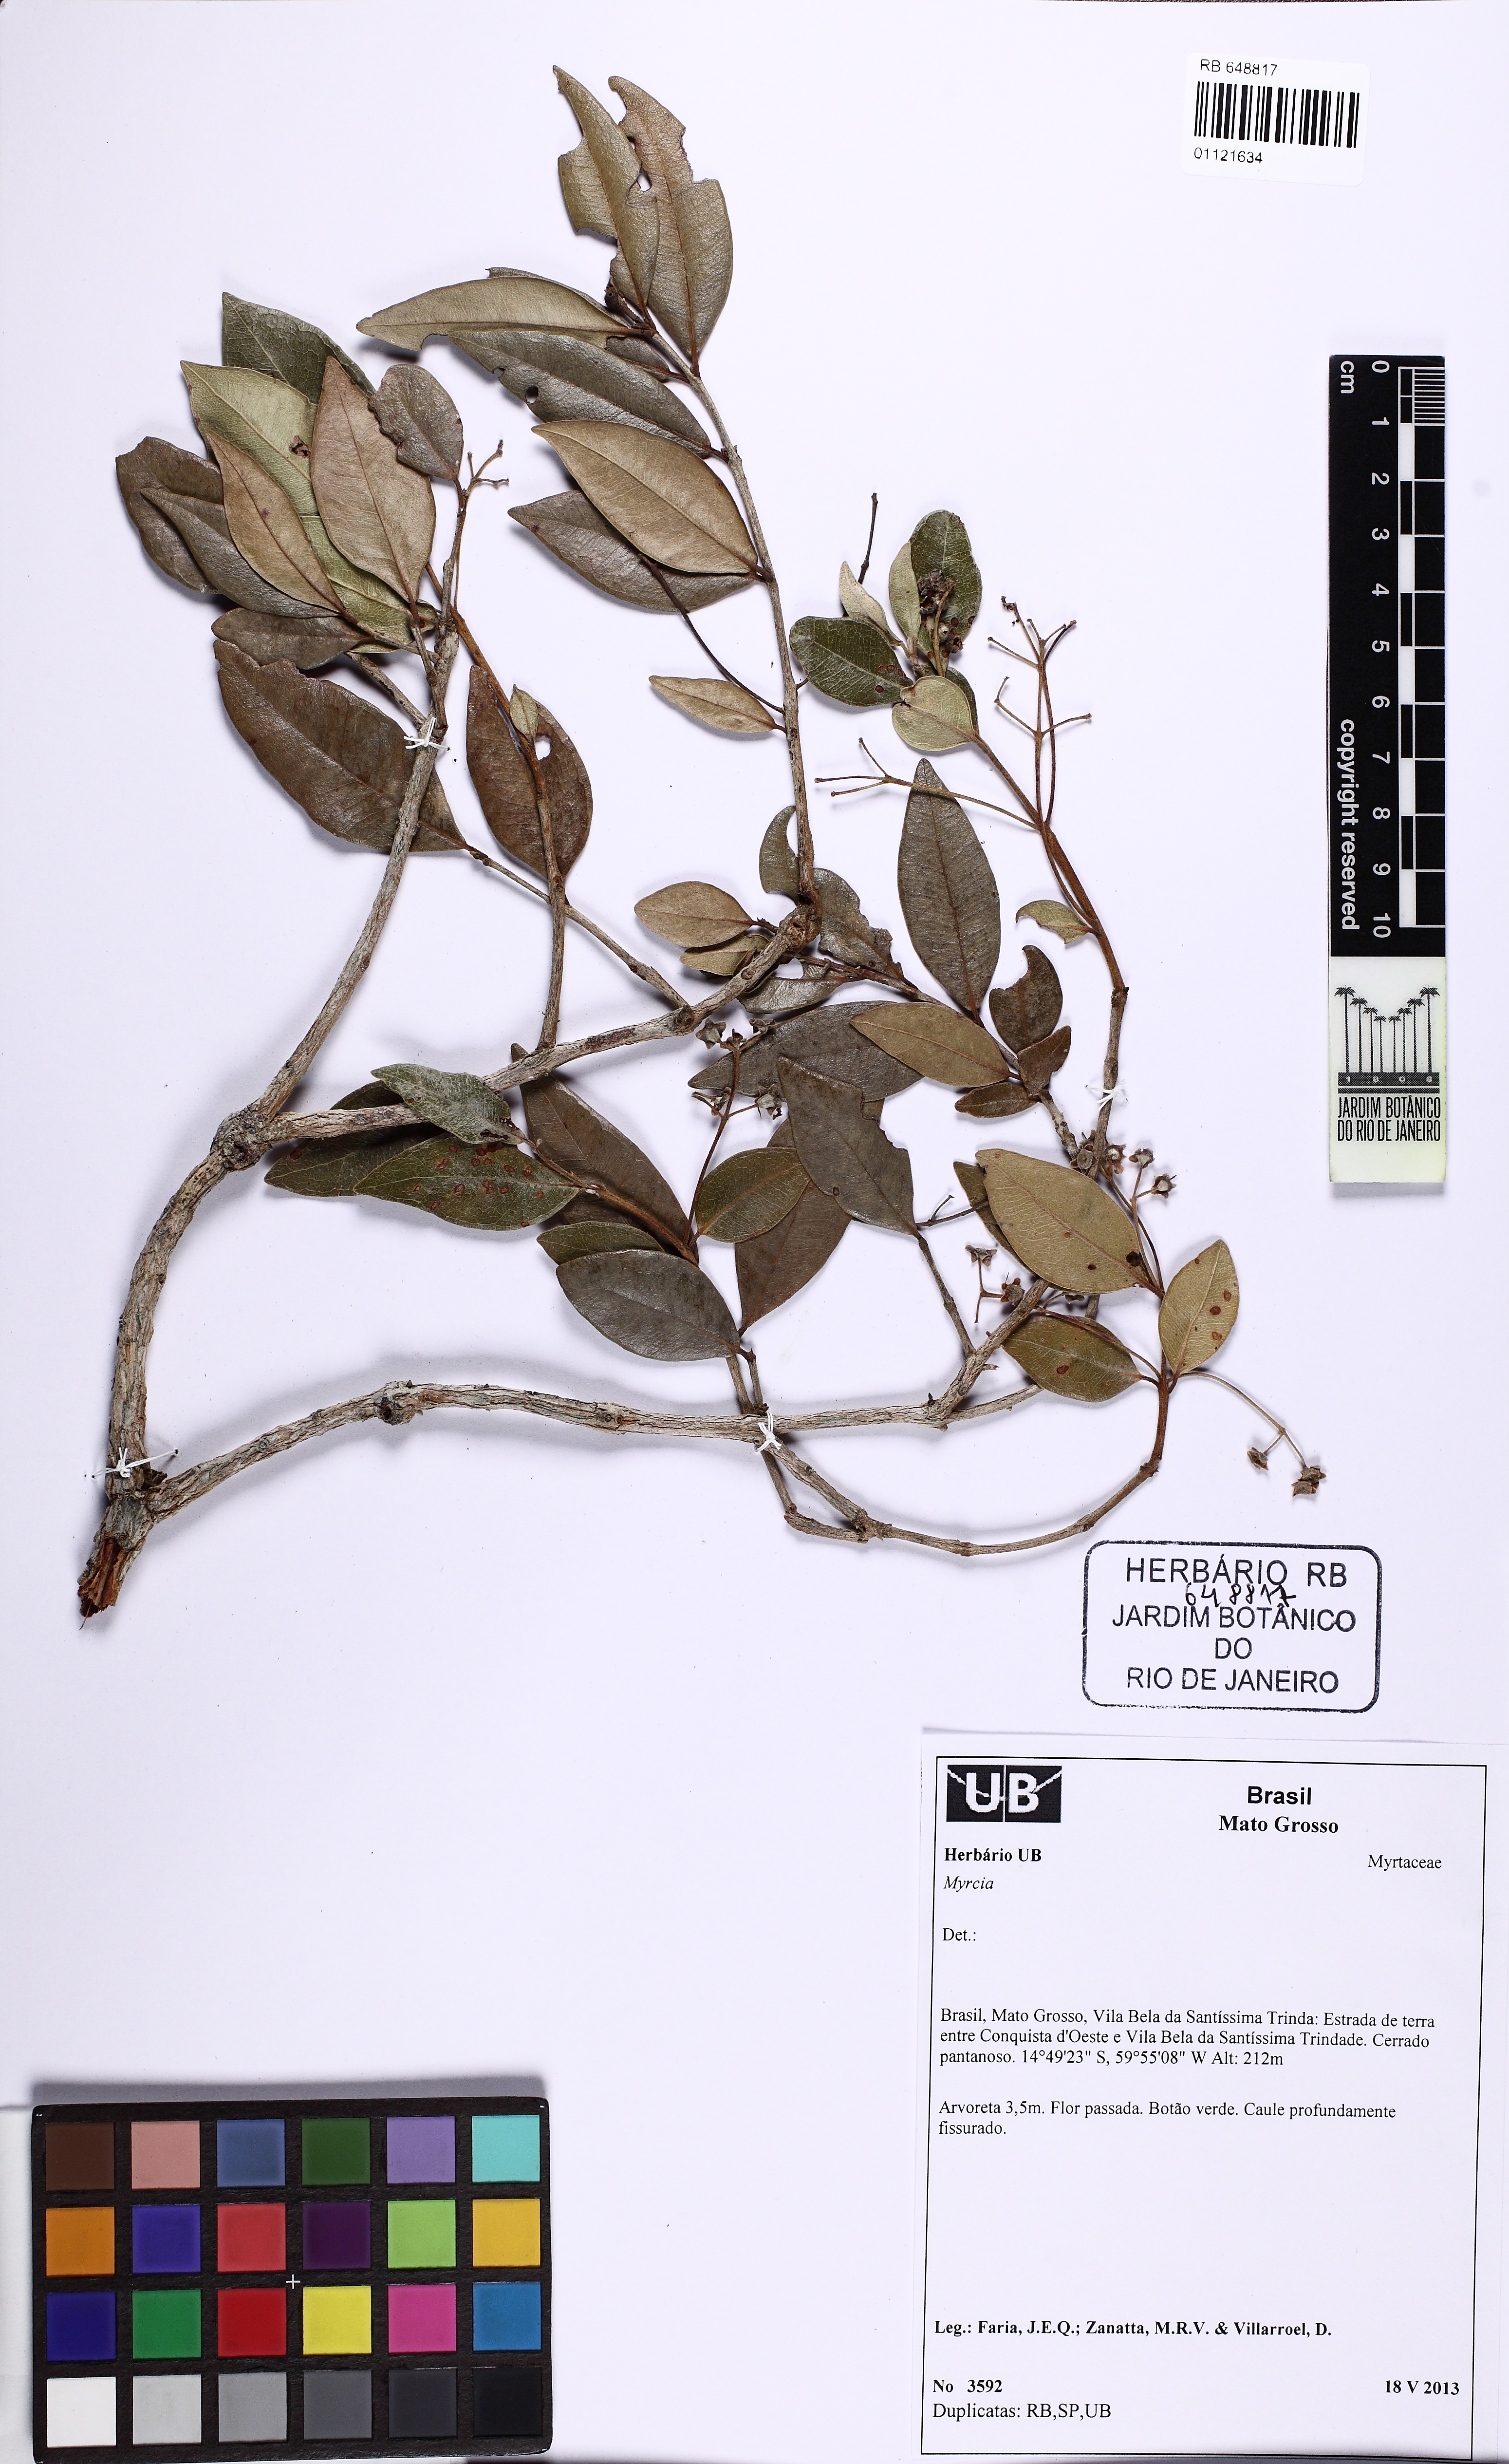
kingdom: Plantae
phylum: Tracheophyta
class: Magnoliopsida
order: Myrtales
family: Myrtaceae
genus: Myrcia
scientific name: Myrcia
